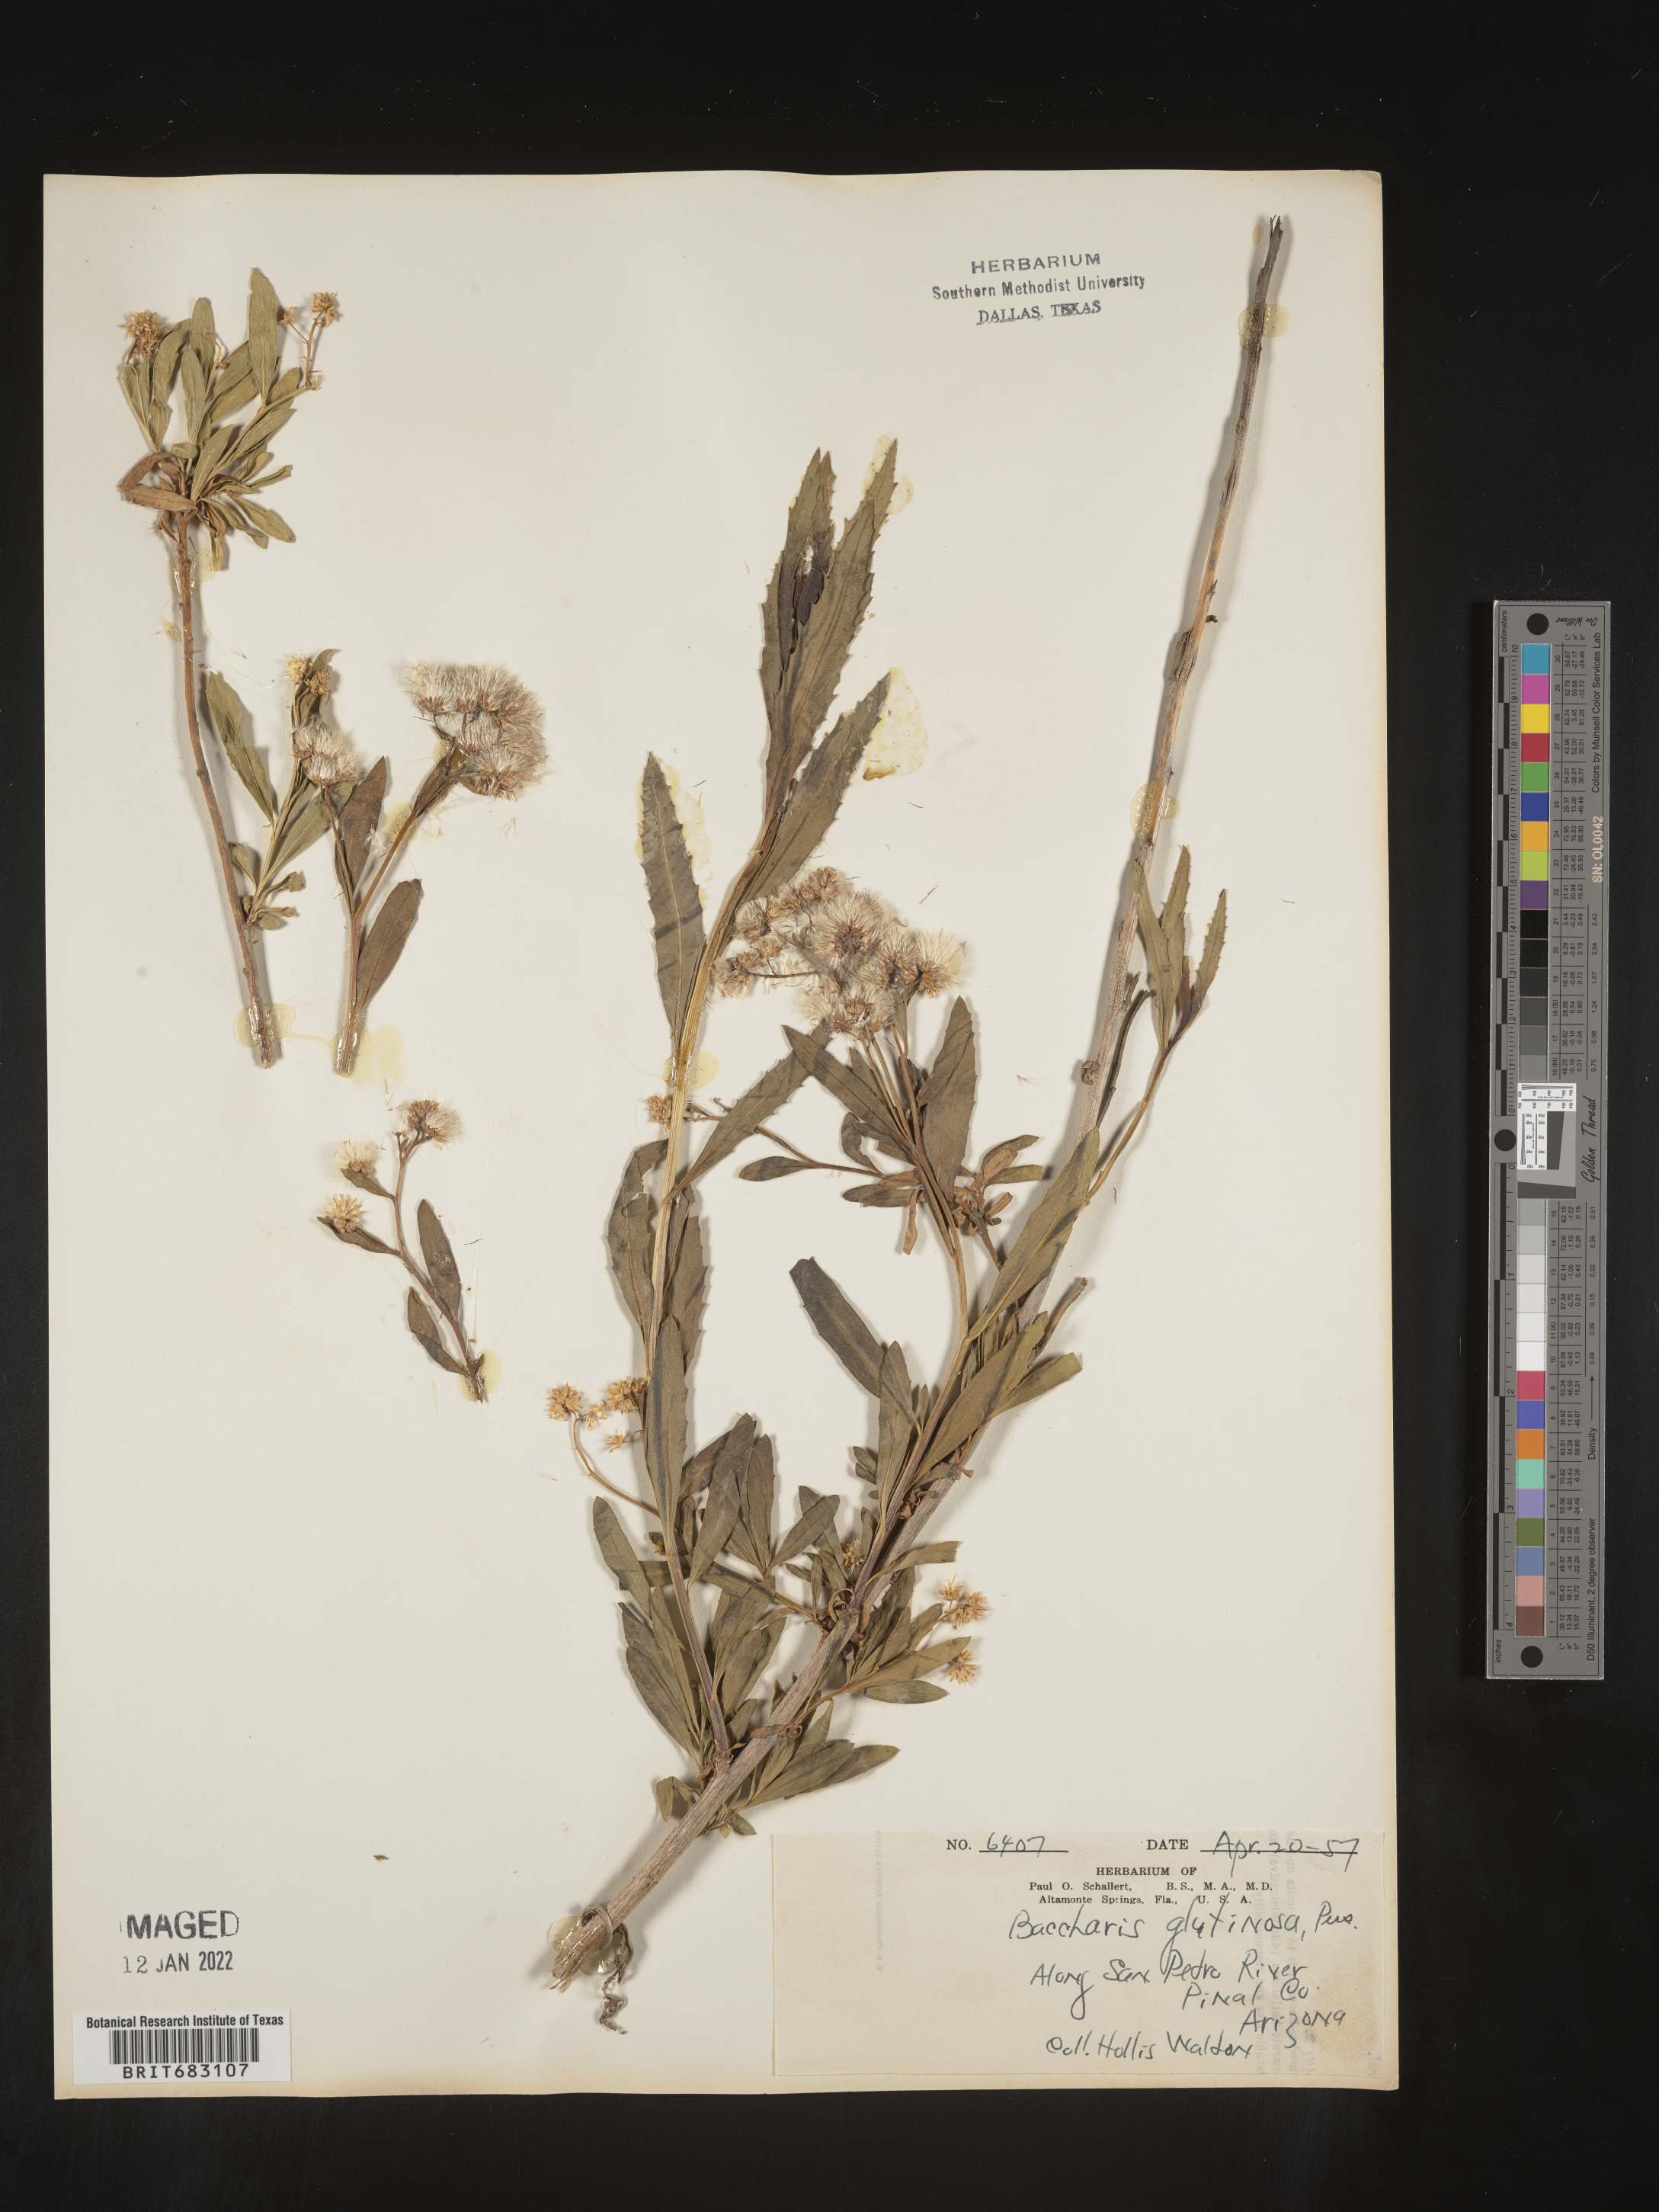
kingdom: Plantae
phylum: Tracheophyta
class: Magnoliopsida
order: Asterales
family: Asteraceae
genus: Baccharis
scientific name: Baccharis salicifolia
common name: Sticky baccharis
